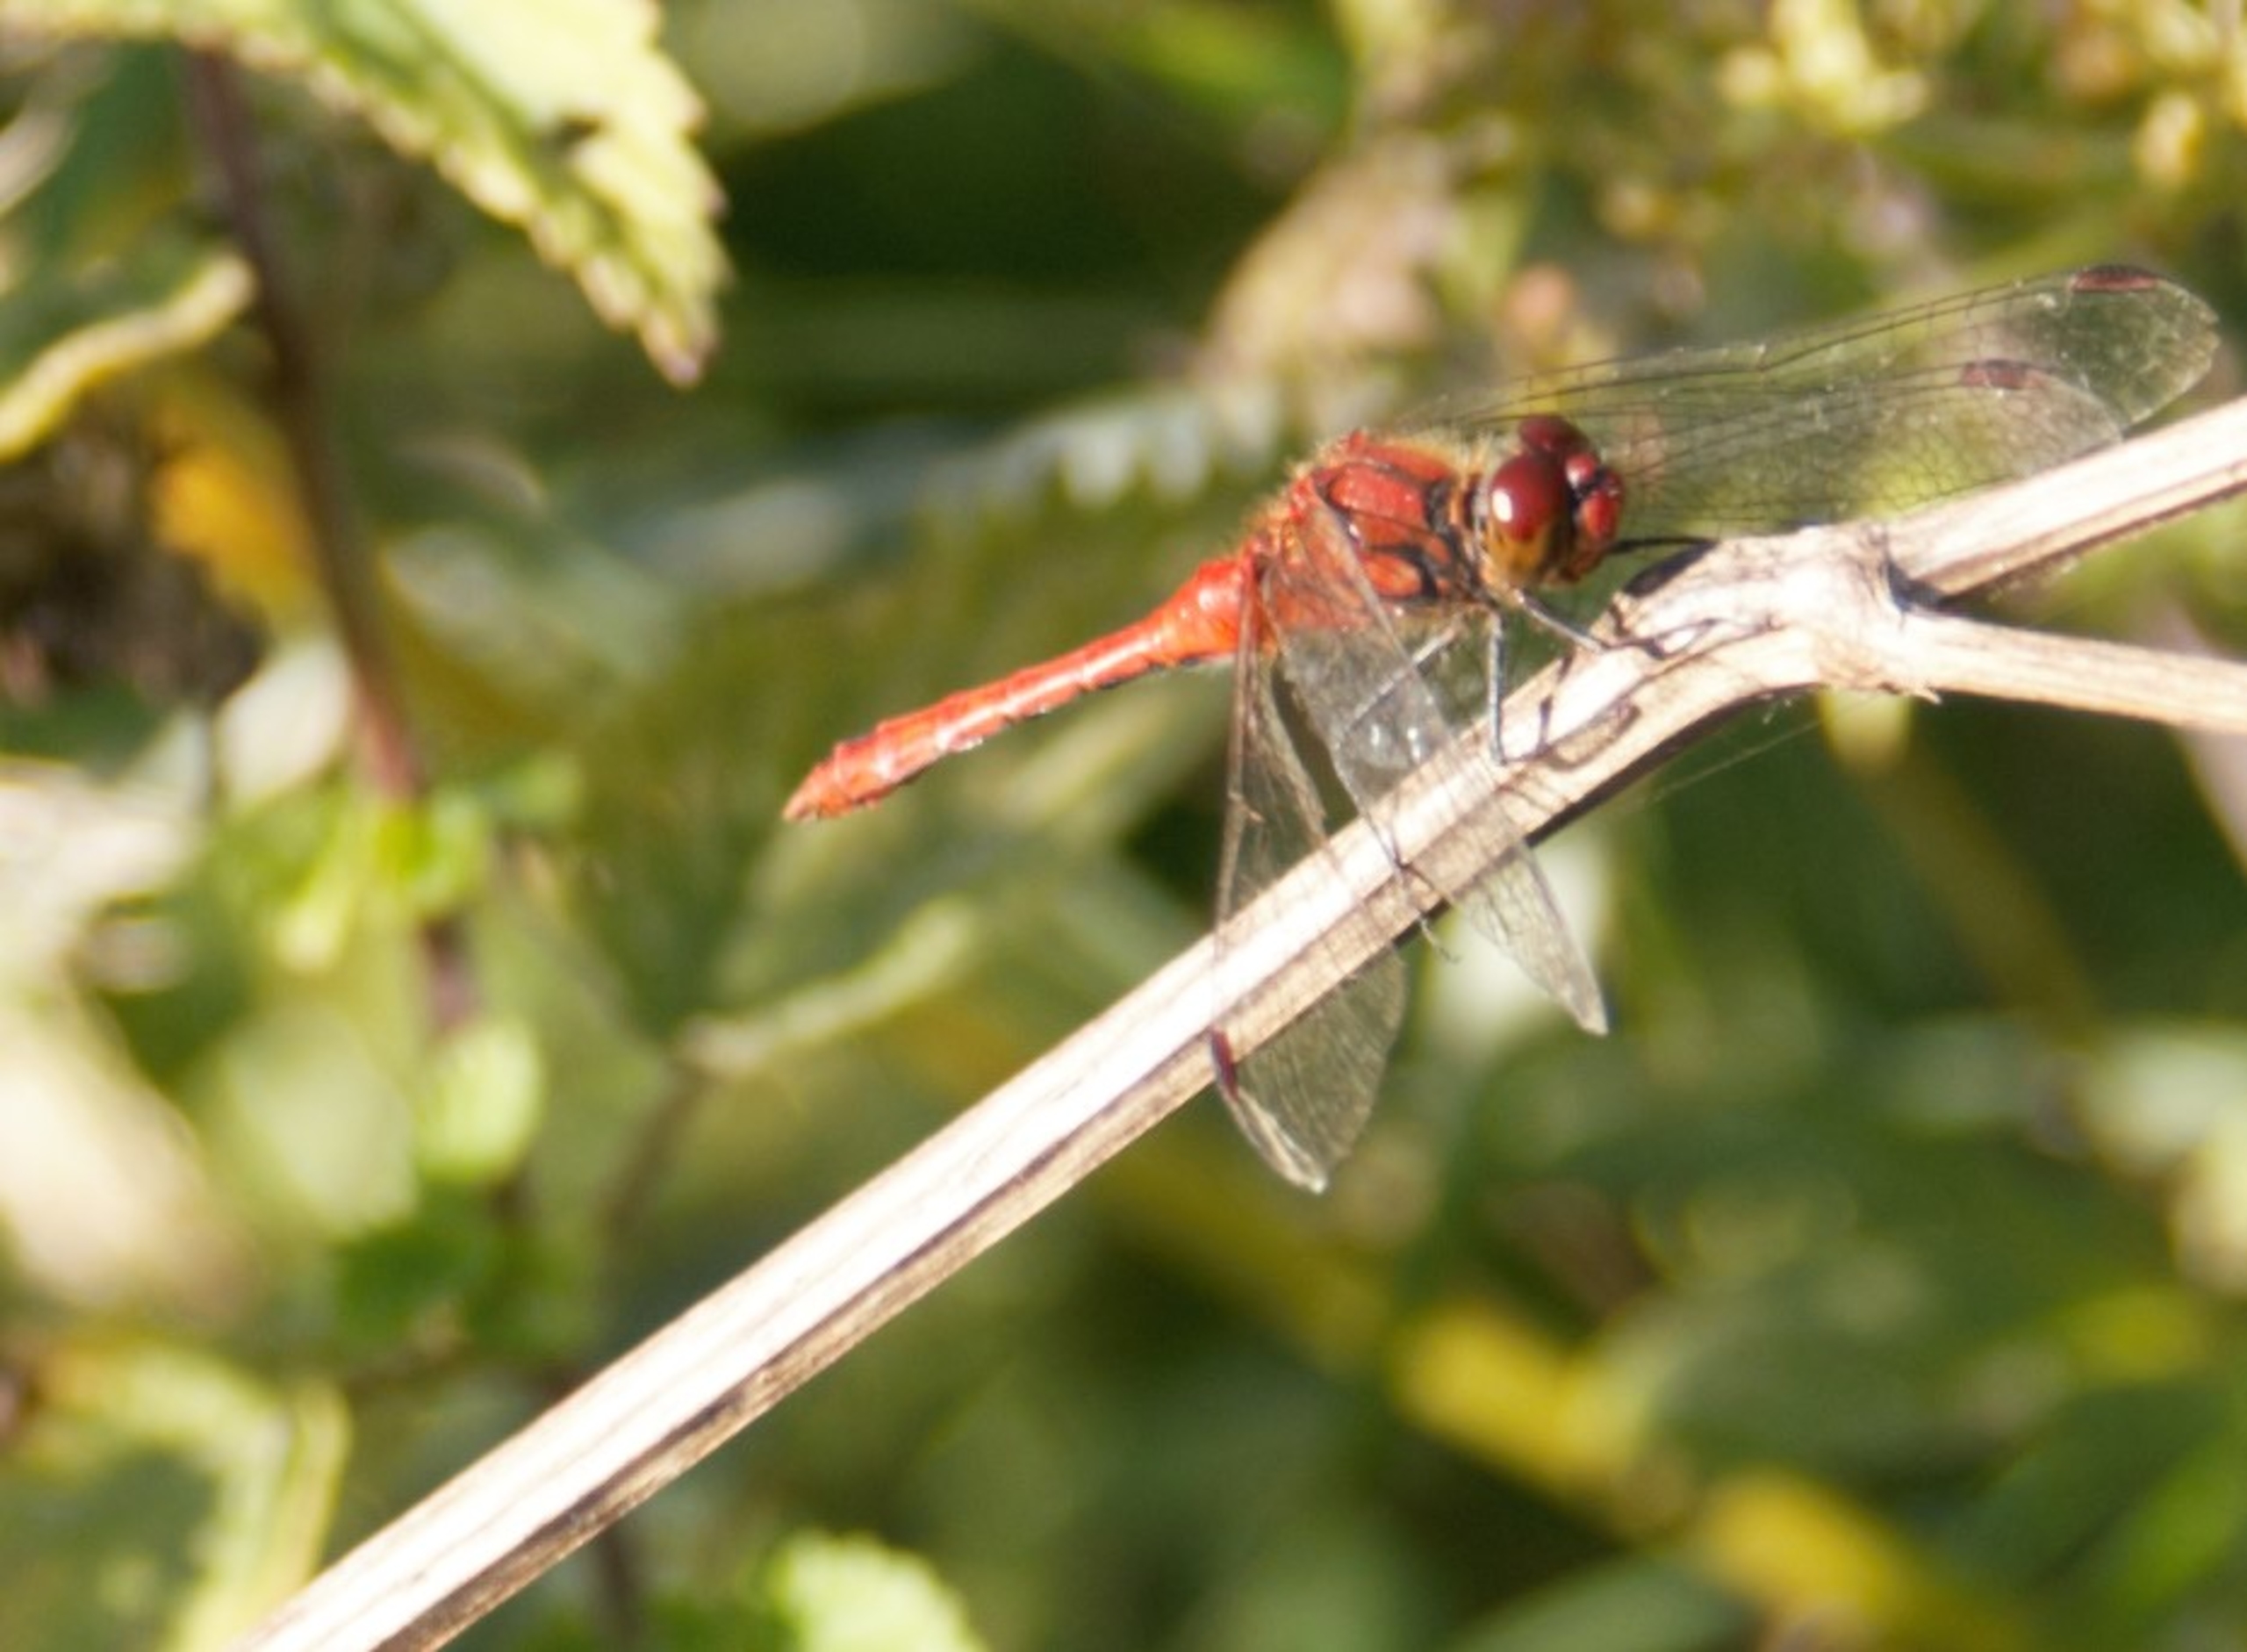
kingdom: Animalia
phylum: Arthropoda
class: Insecta
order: Odonata
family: Libellulidae
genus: Sympetrum
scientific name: Sympetrum sanguineum
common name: Blodrød hedelibel
